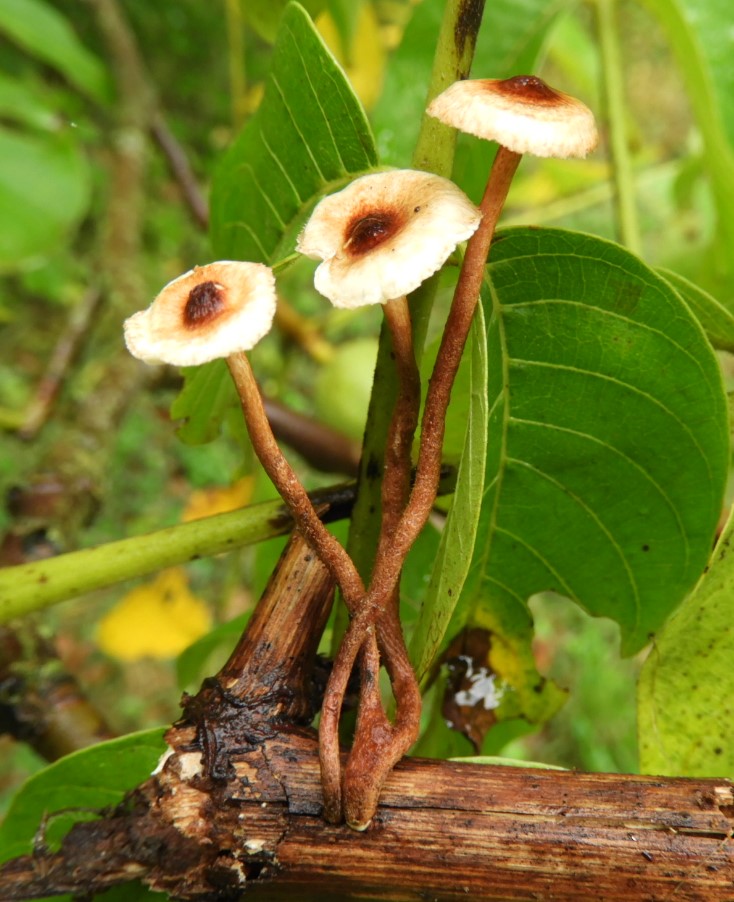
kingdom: Fungi
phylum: Basidiomycota
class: Agaricomycetes
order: Agaricales
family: Marasmiaceae
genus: Crinipellis
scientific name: Crinipellis scabella
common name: børstefod
